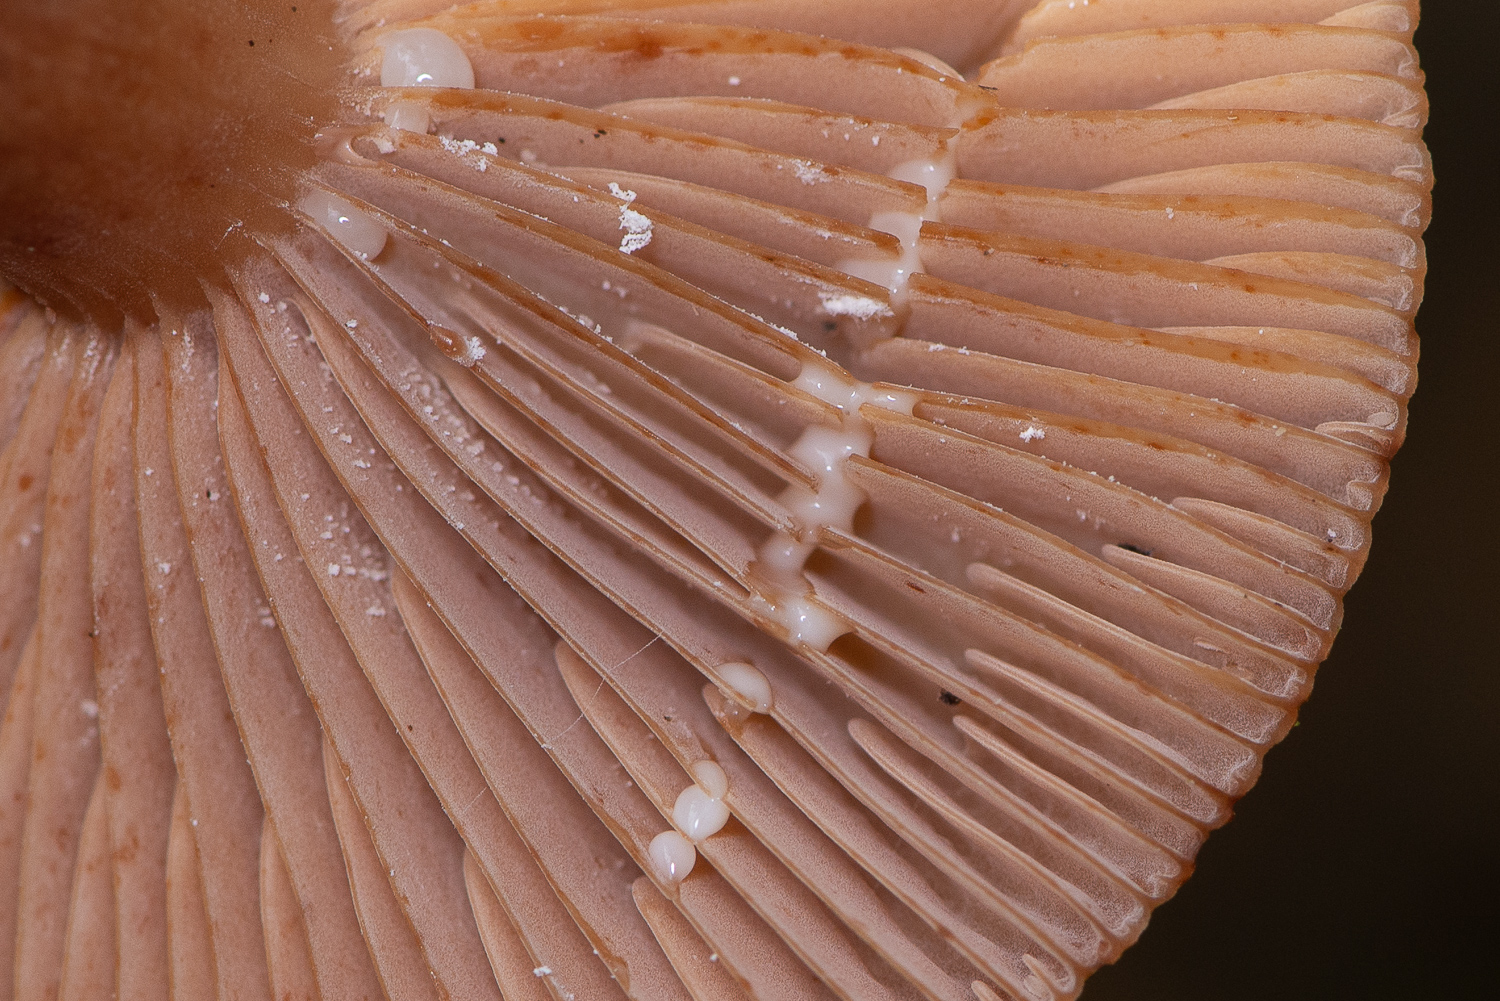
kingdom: Fungi
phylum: Basidiomycota
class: Agaricomycetes
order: Russulales
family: Russulaceae
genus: Lactarius
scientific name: Lactarius quietus
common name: ege-mælkehat
